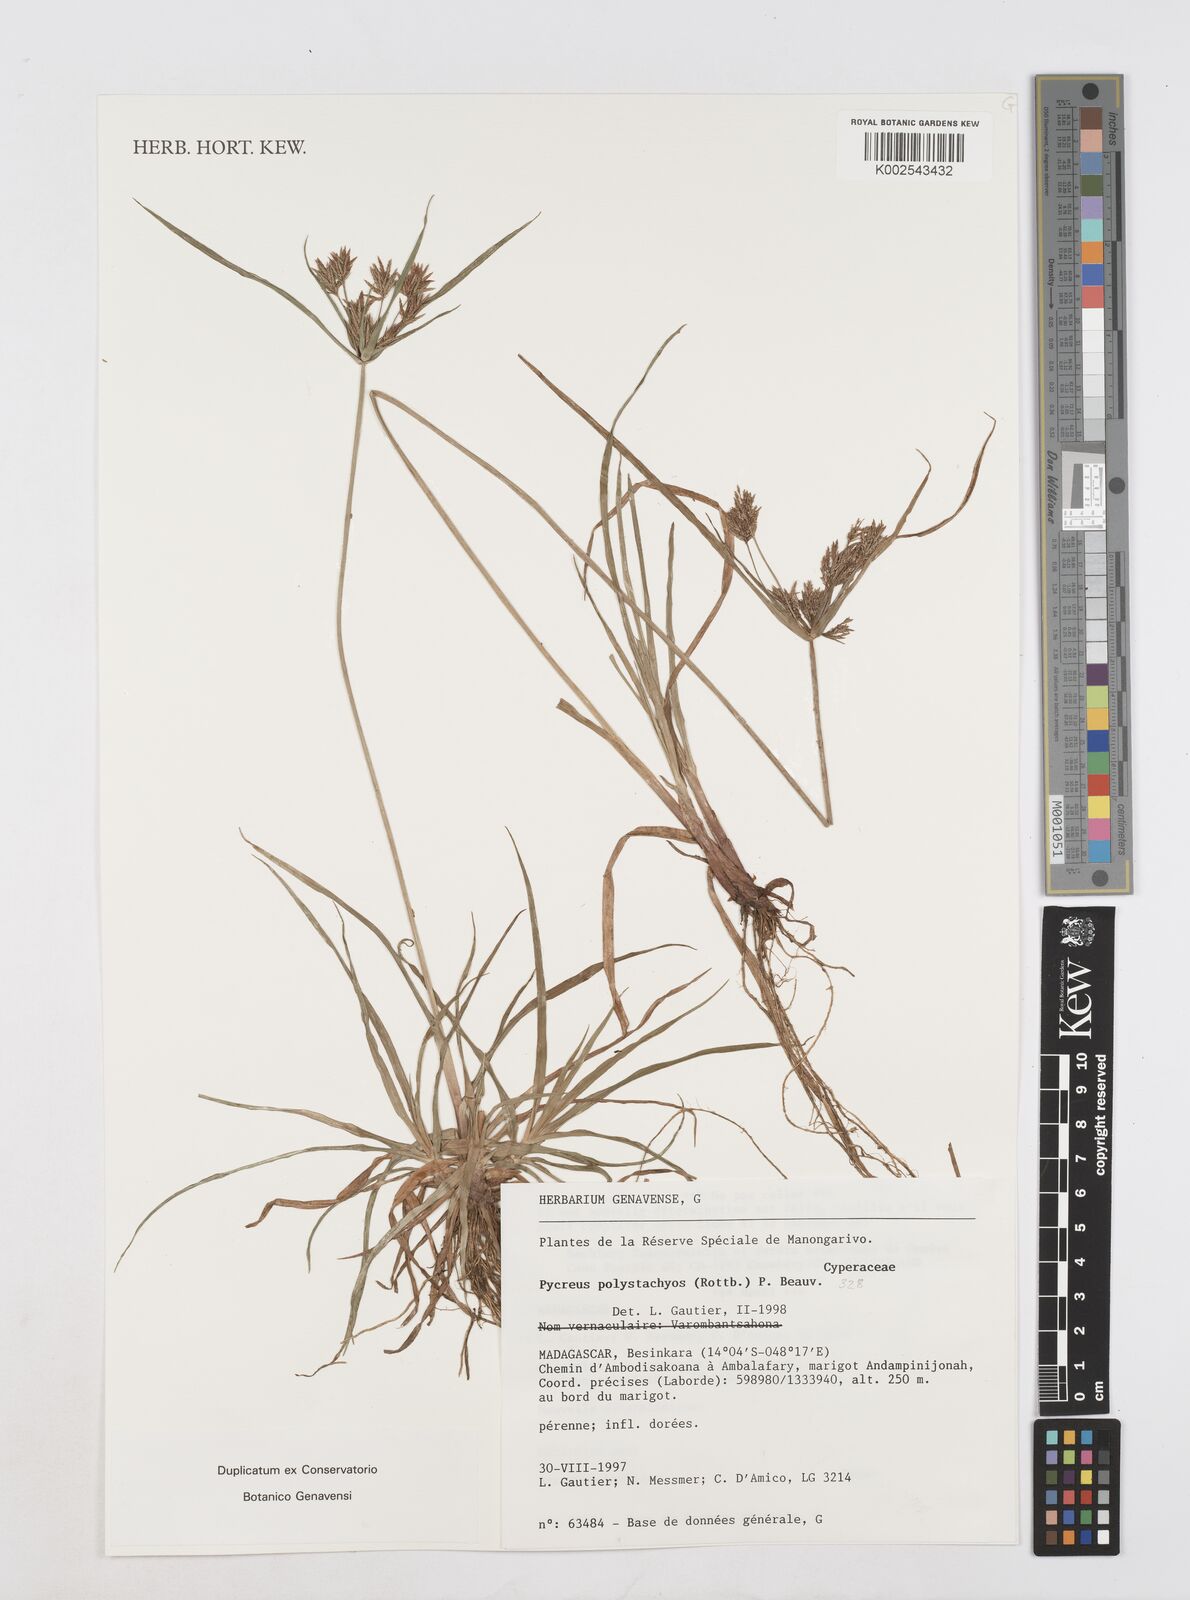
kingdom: Plantae
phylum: Tracheophyta
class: Liliopsida
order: Poales
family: Cyperaceae
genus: Cyperus
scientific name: Cyperus polystachyos
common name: Bunchy flat sedge
